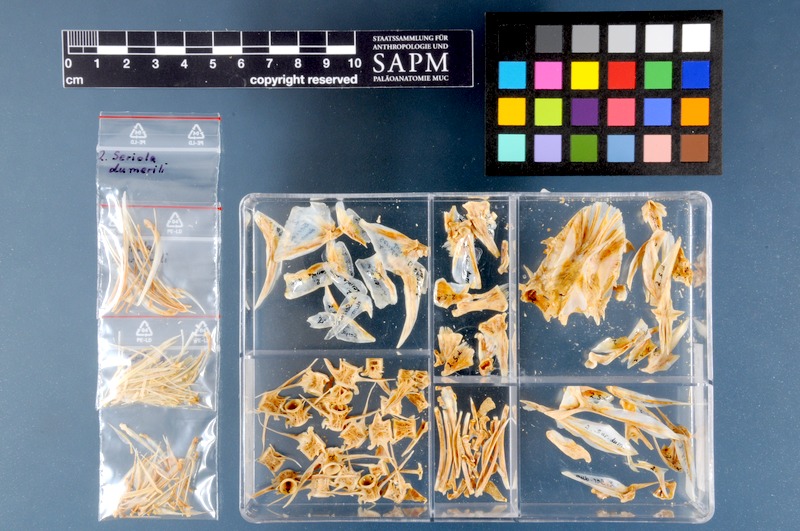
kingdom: Animalia
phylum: Chordata
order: Perciformes
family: Carangidae
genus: Seriola
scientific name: Seriola dumerili
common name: Greater amberjack
